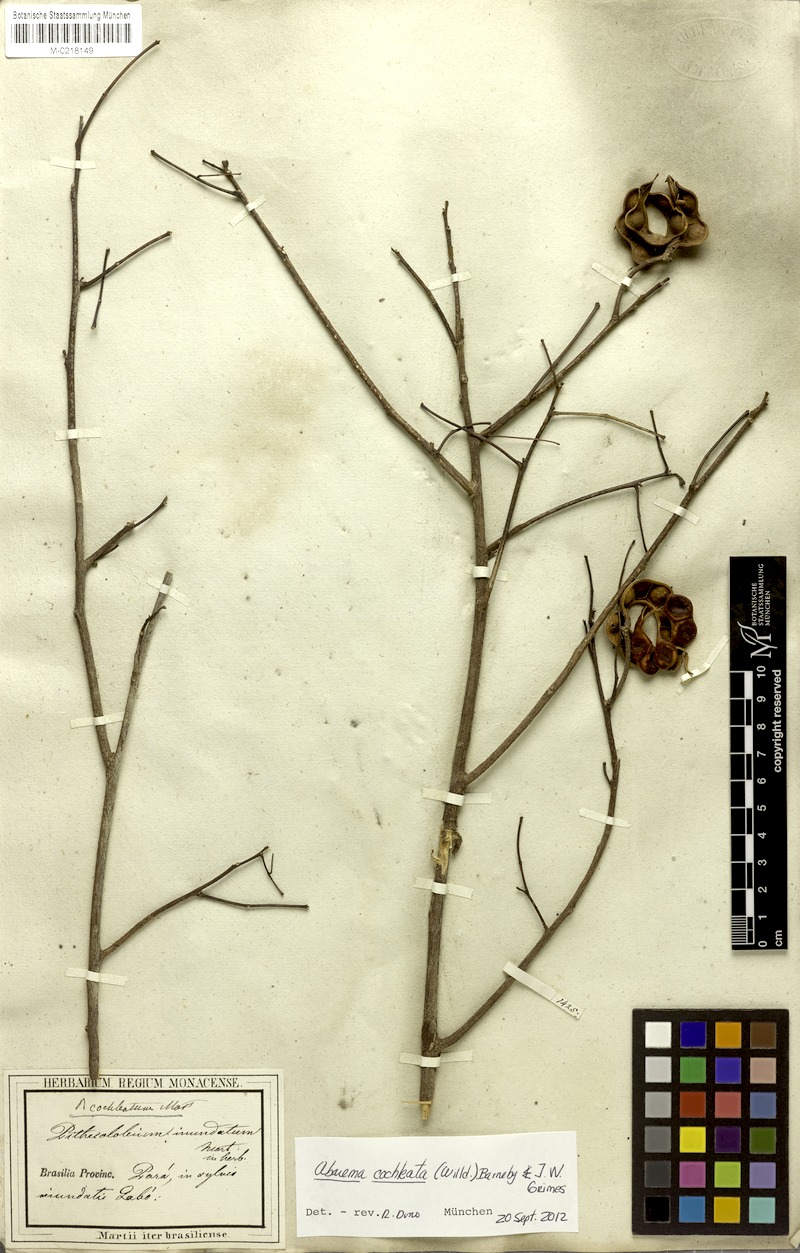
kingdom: Plantae
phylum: Tracheophyta
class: Magnoliopsida
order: Fabales
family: Fabaceae
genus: Jupunba
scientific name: Jupunba cochleata
